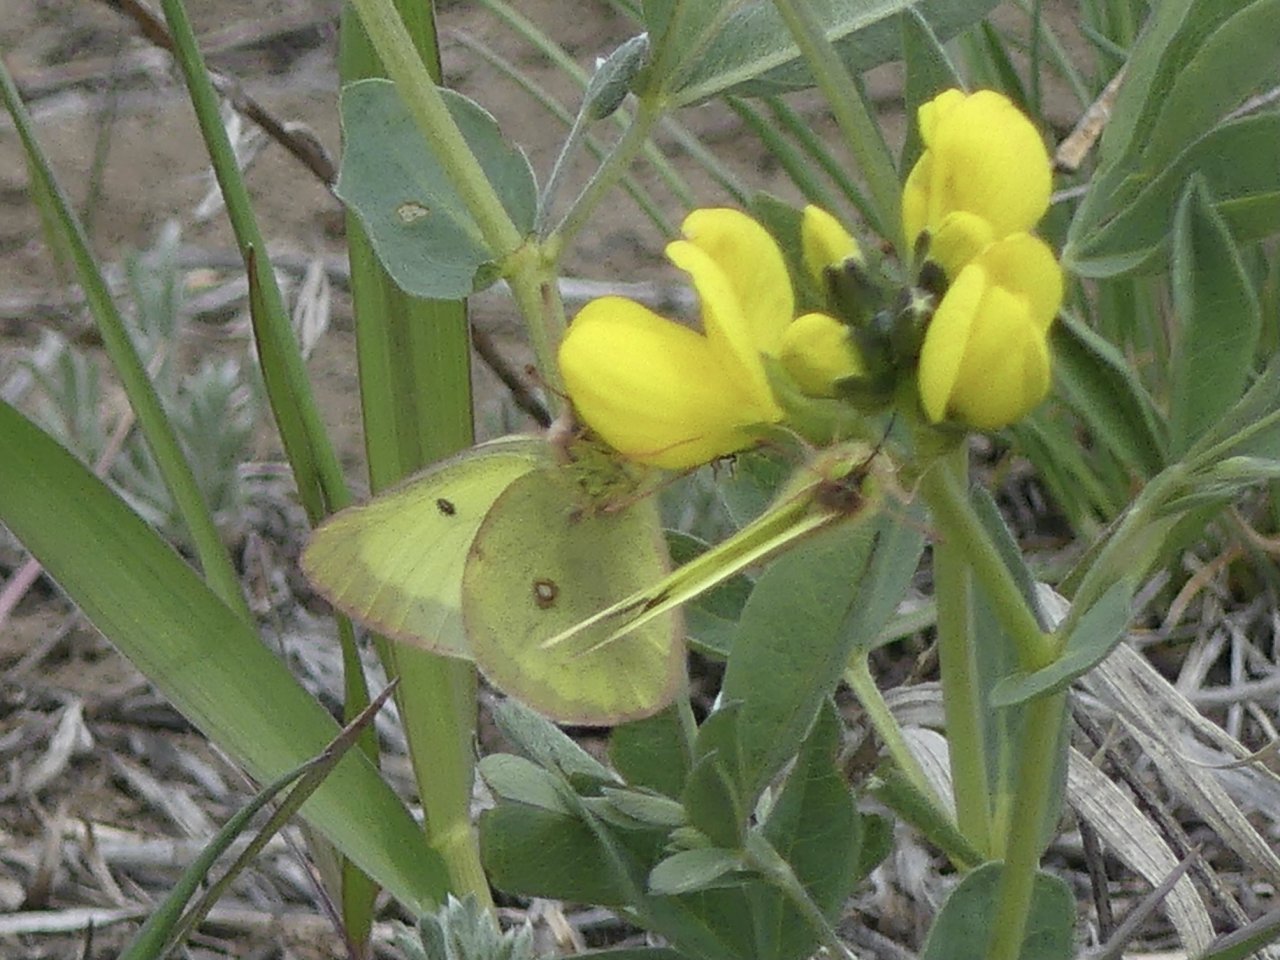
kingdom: Animalia
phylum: Arthropoda
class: Insecta
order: Lepidoptera
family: Pieridae
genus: Colias
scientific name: Colias philodice
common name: Clouded Sulphur
